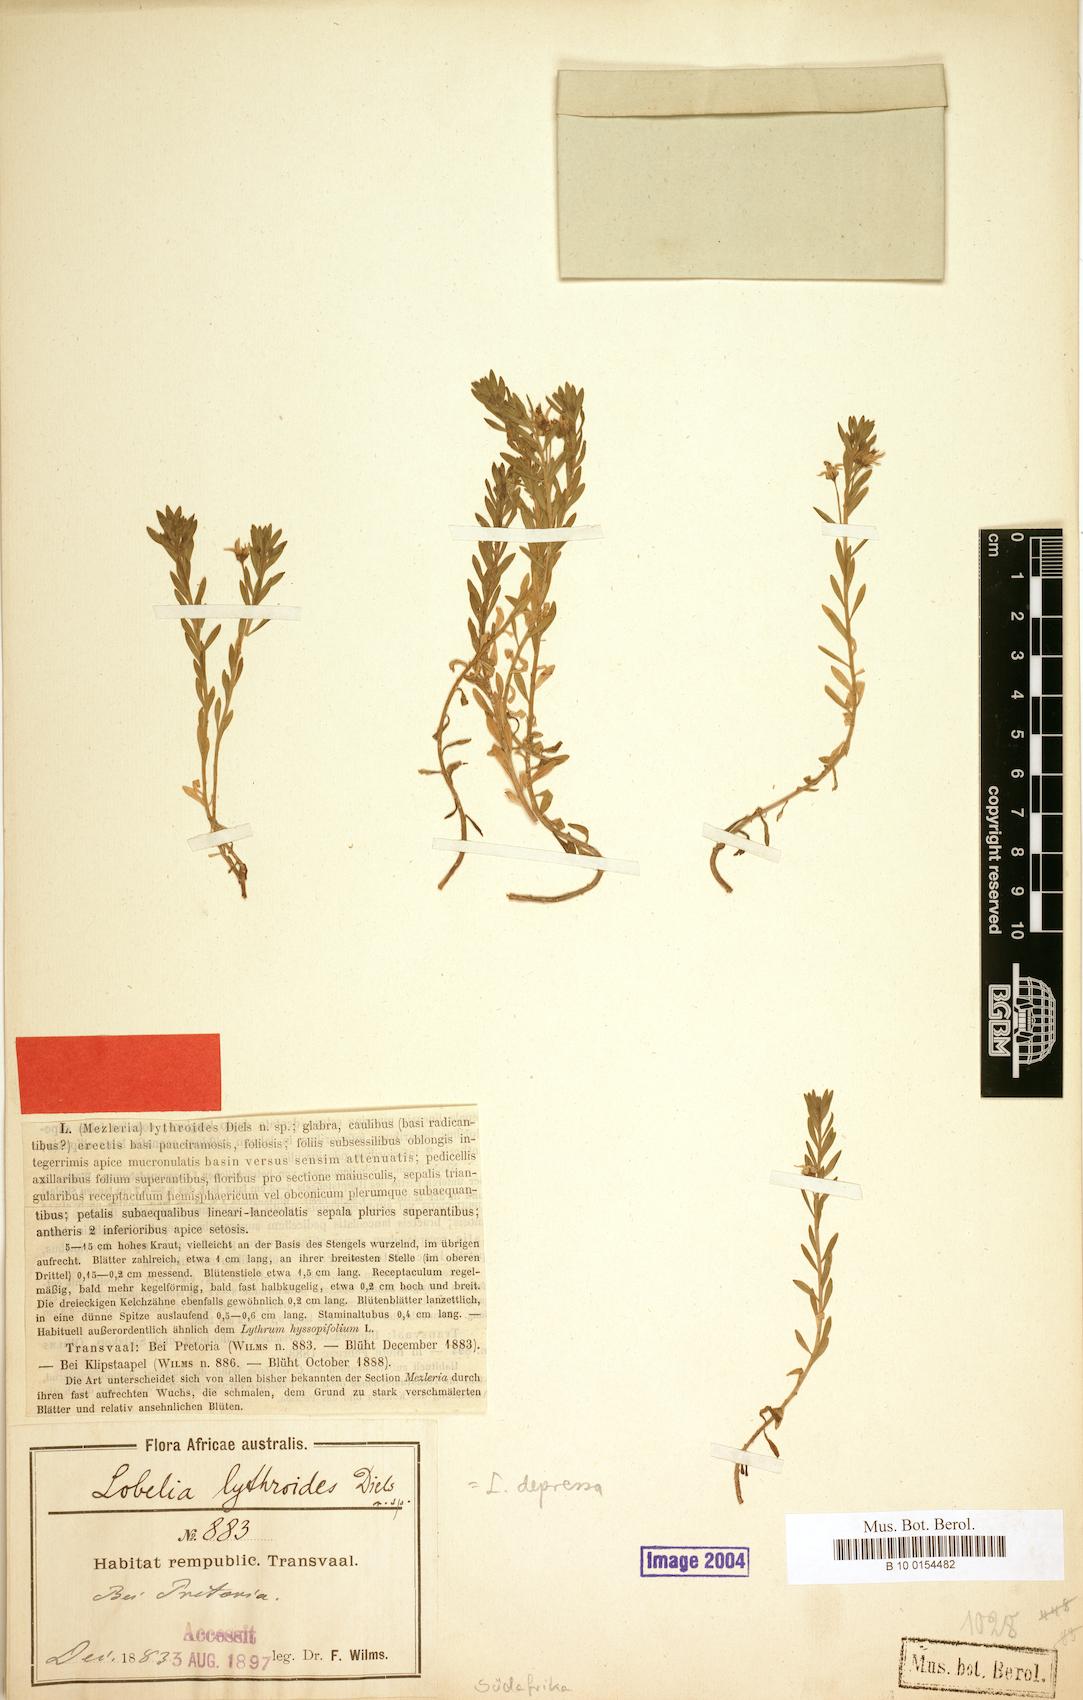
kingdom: Plantae
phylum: Tracheophyta
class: Magnoliopsida
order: Asterales
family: Campanulaceae
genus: Monopsis
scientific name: Monopsis debilis
